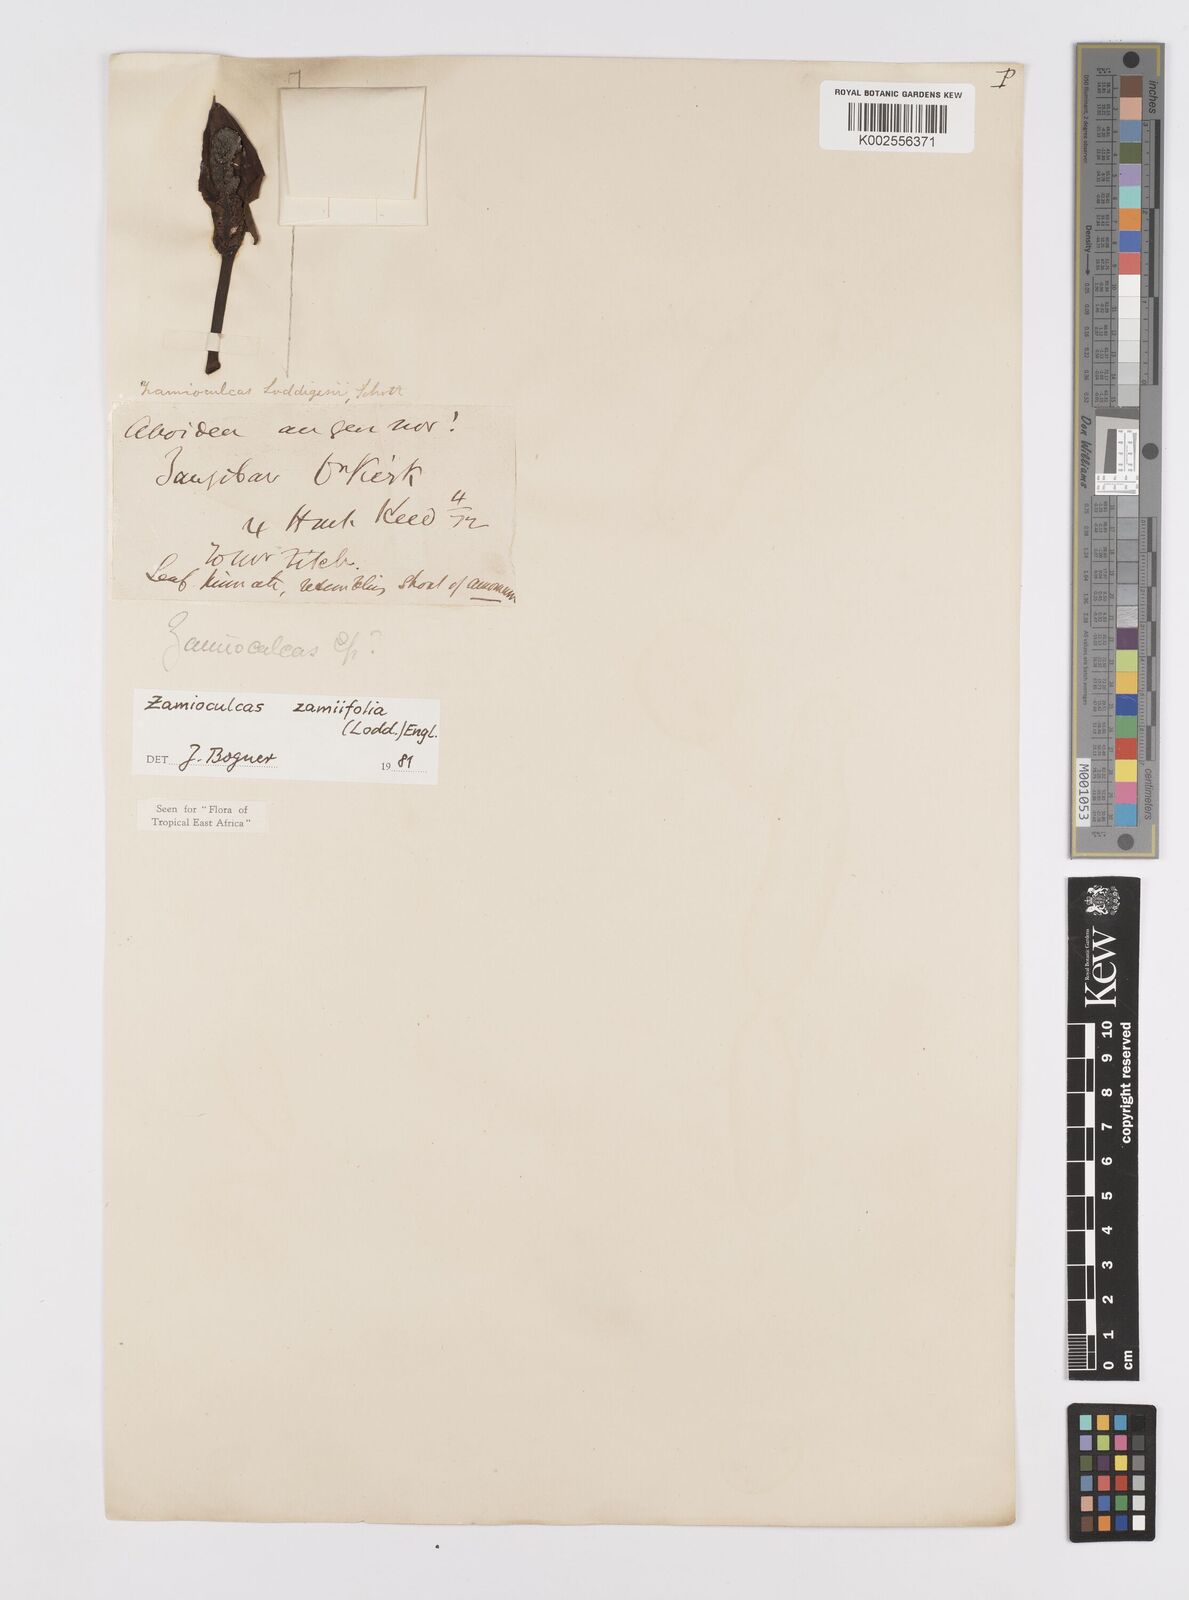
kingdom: Plantae
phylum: Tracheophyta
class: Liliopsida
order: Alismatales
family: Araceae
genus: Zamioculcas
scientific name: Zamioculcas zamiifolia
